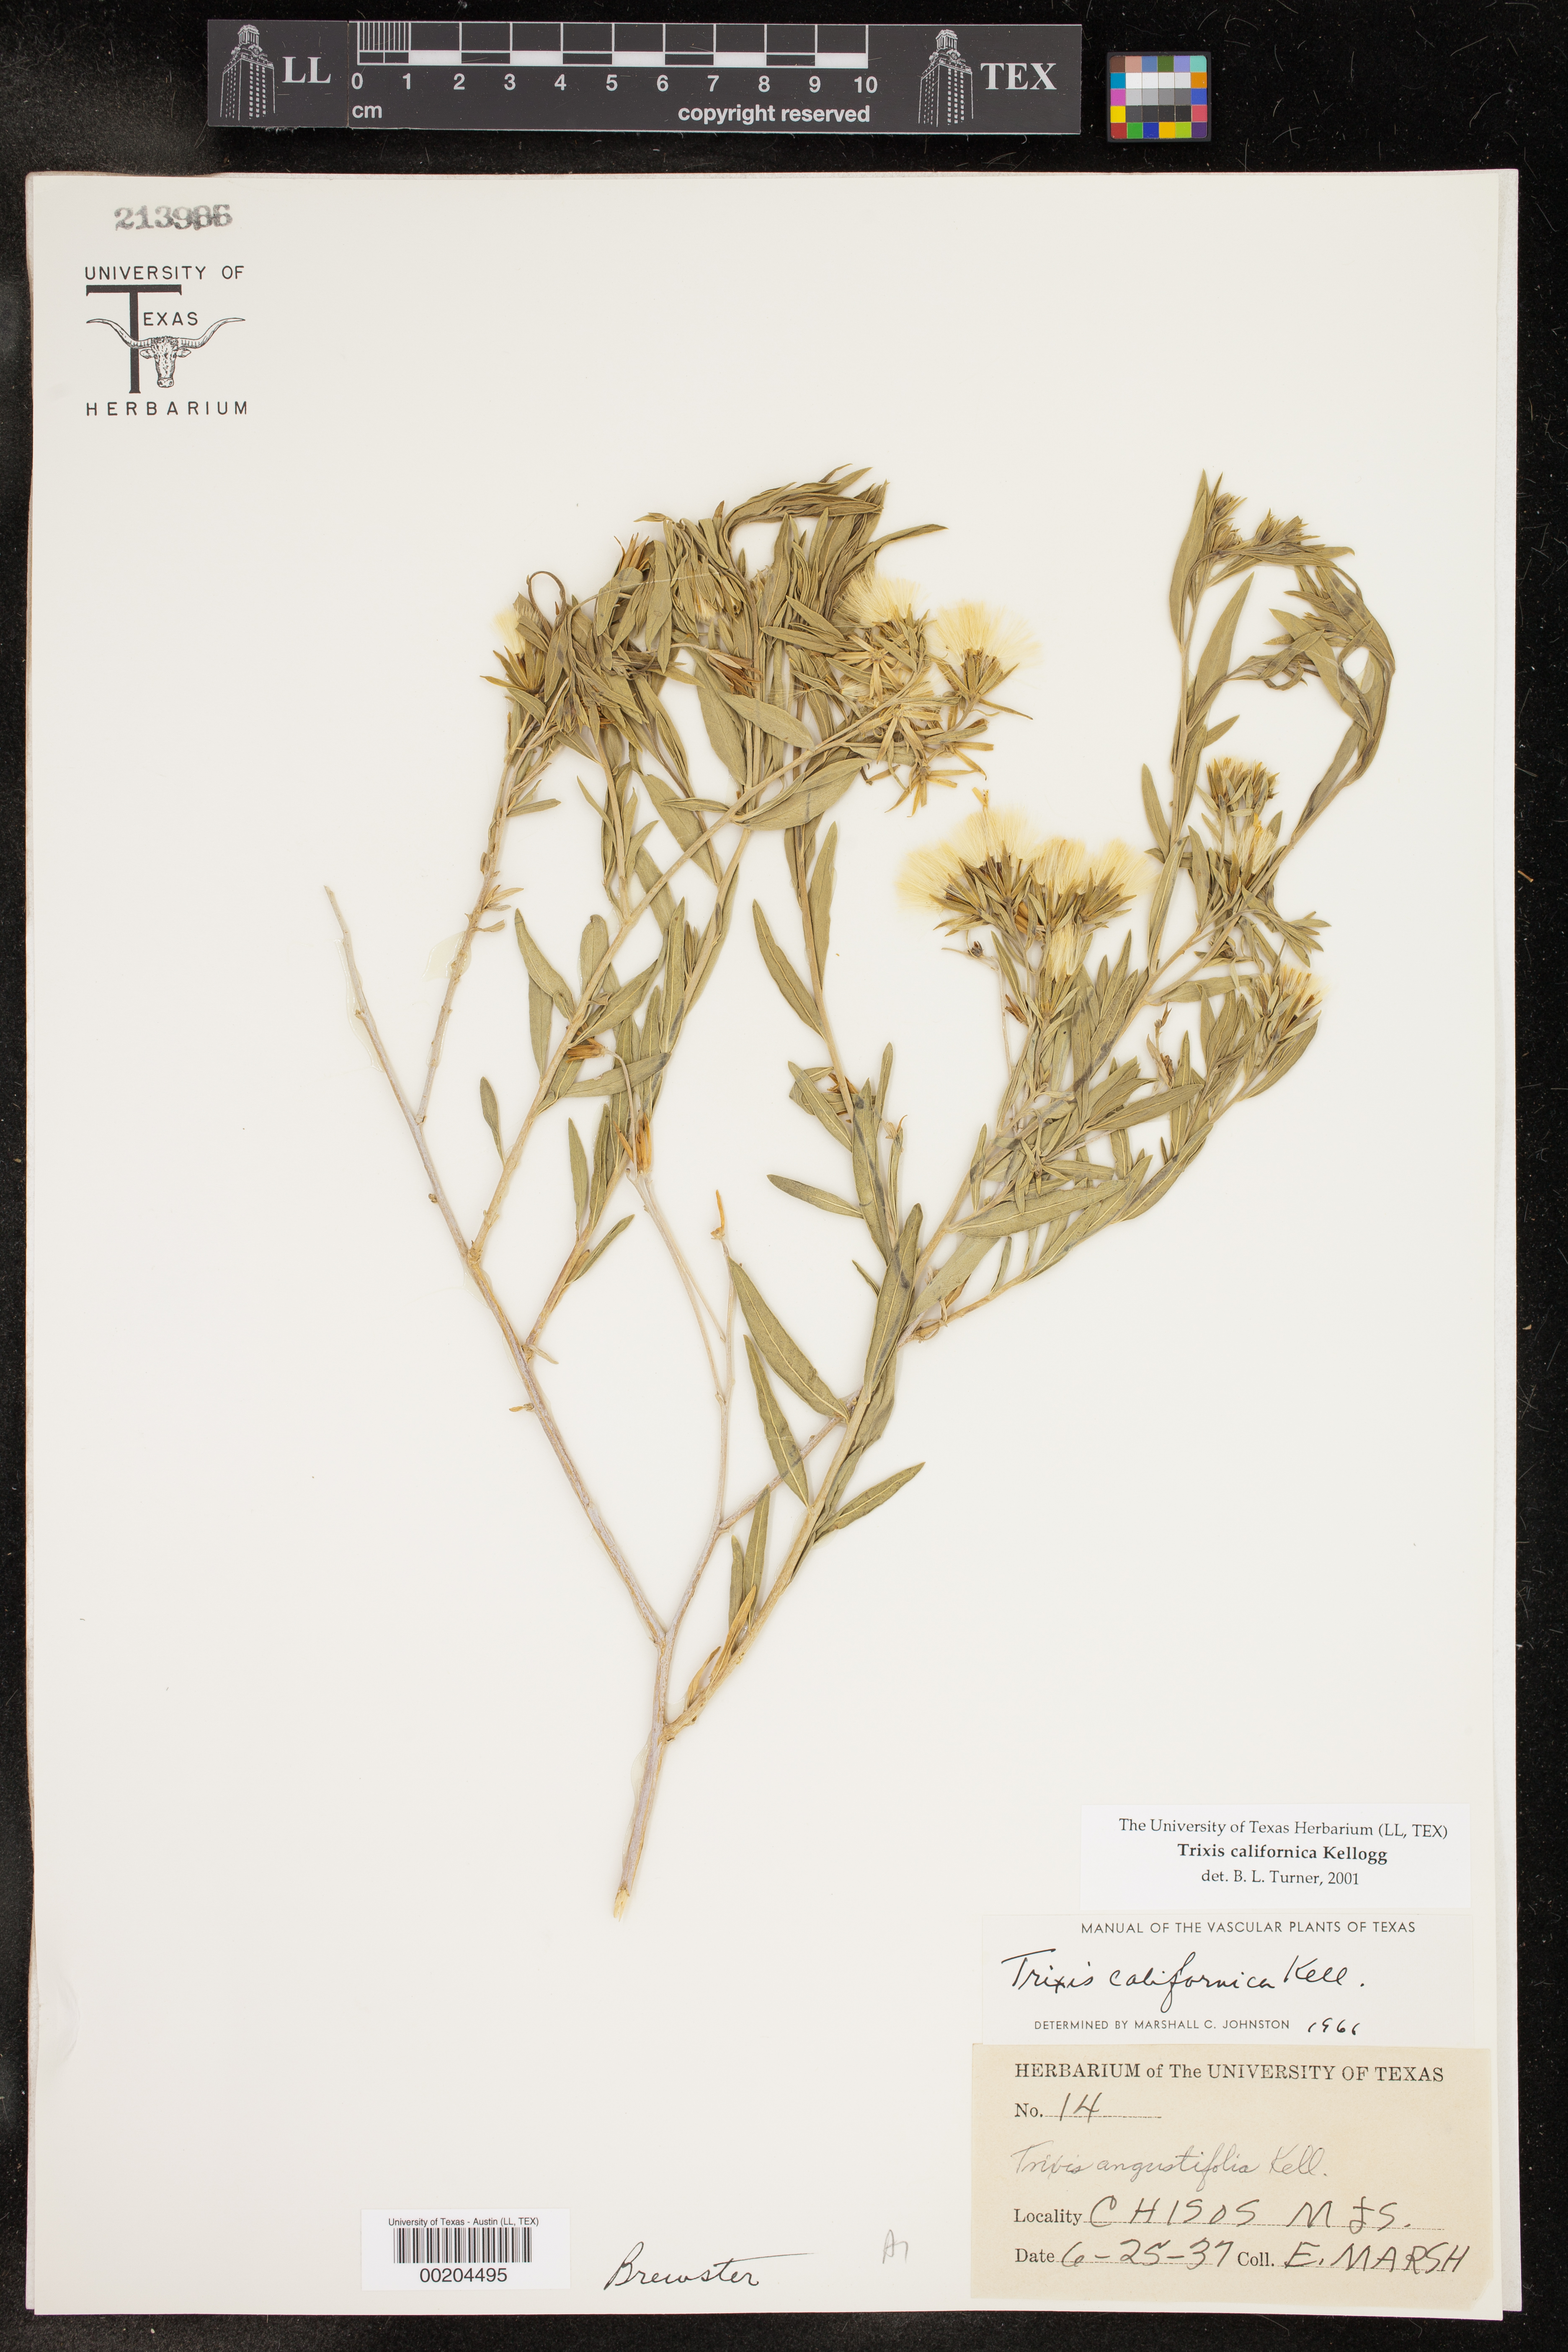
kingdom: Plantae
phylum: Tracheophyta
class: Magnoliopsida
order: Asterales
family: Asteraceae
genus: Trixis
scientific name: Trixis californica
